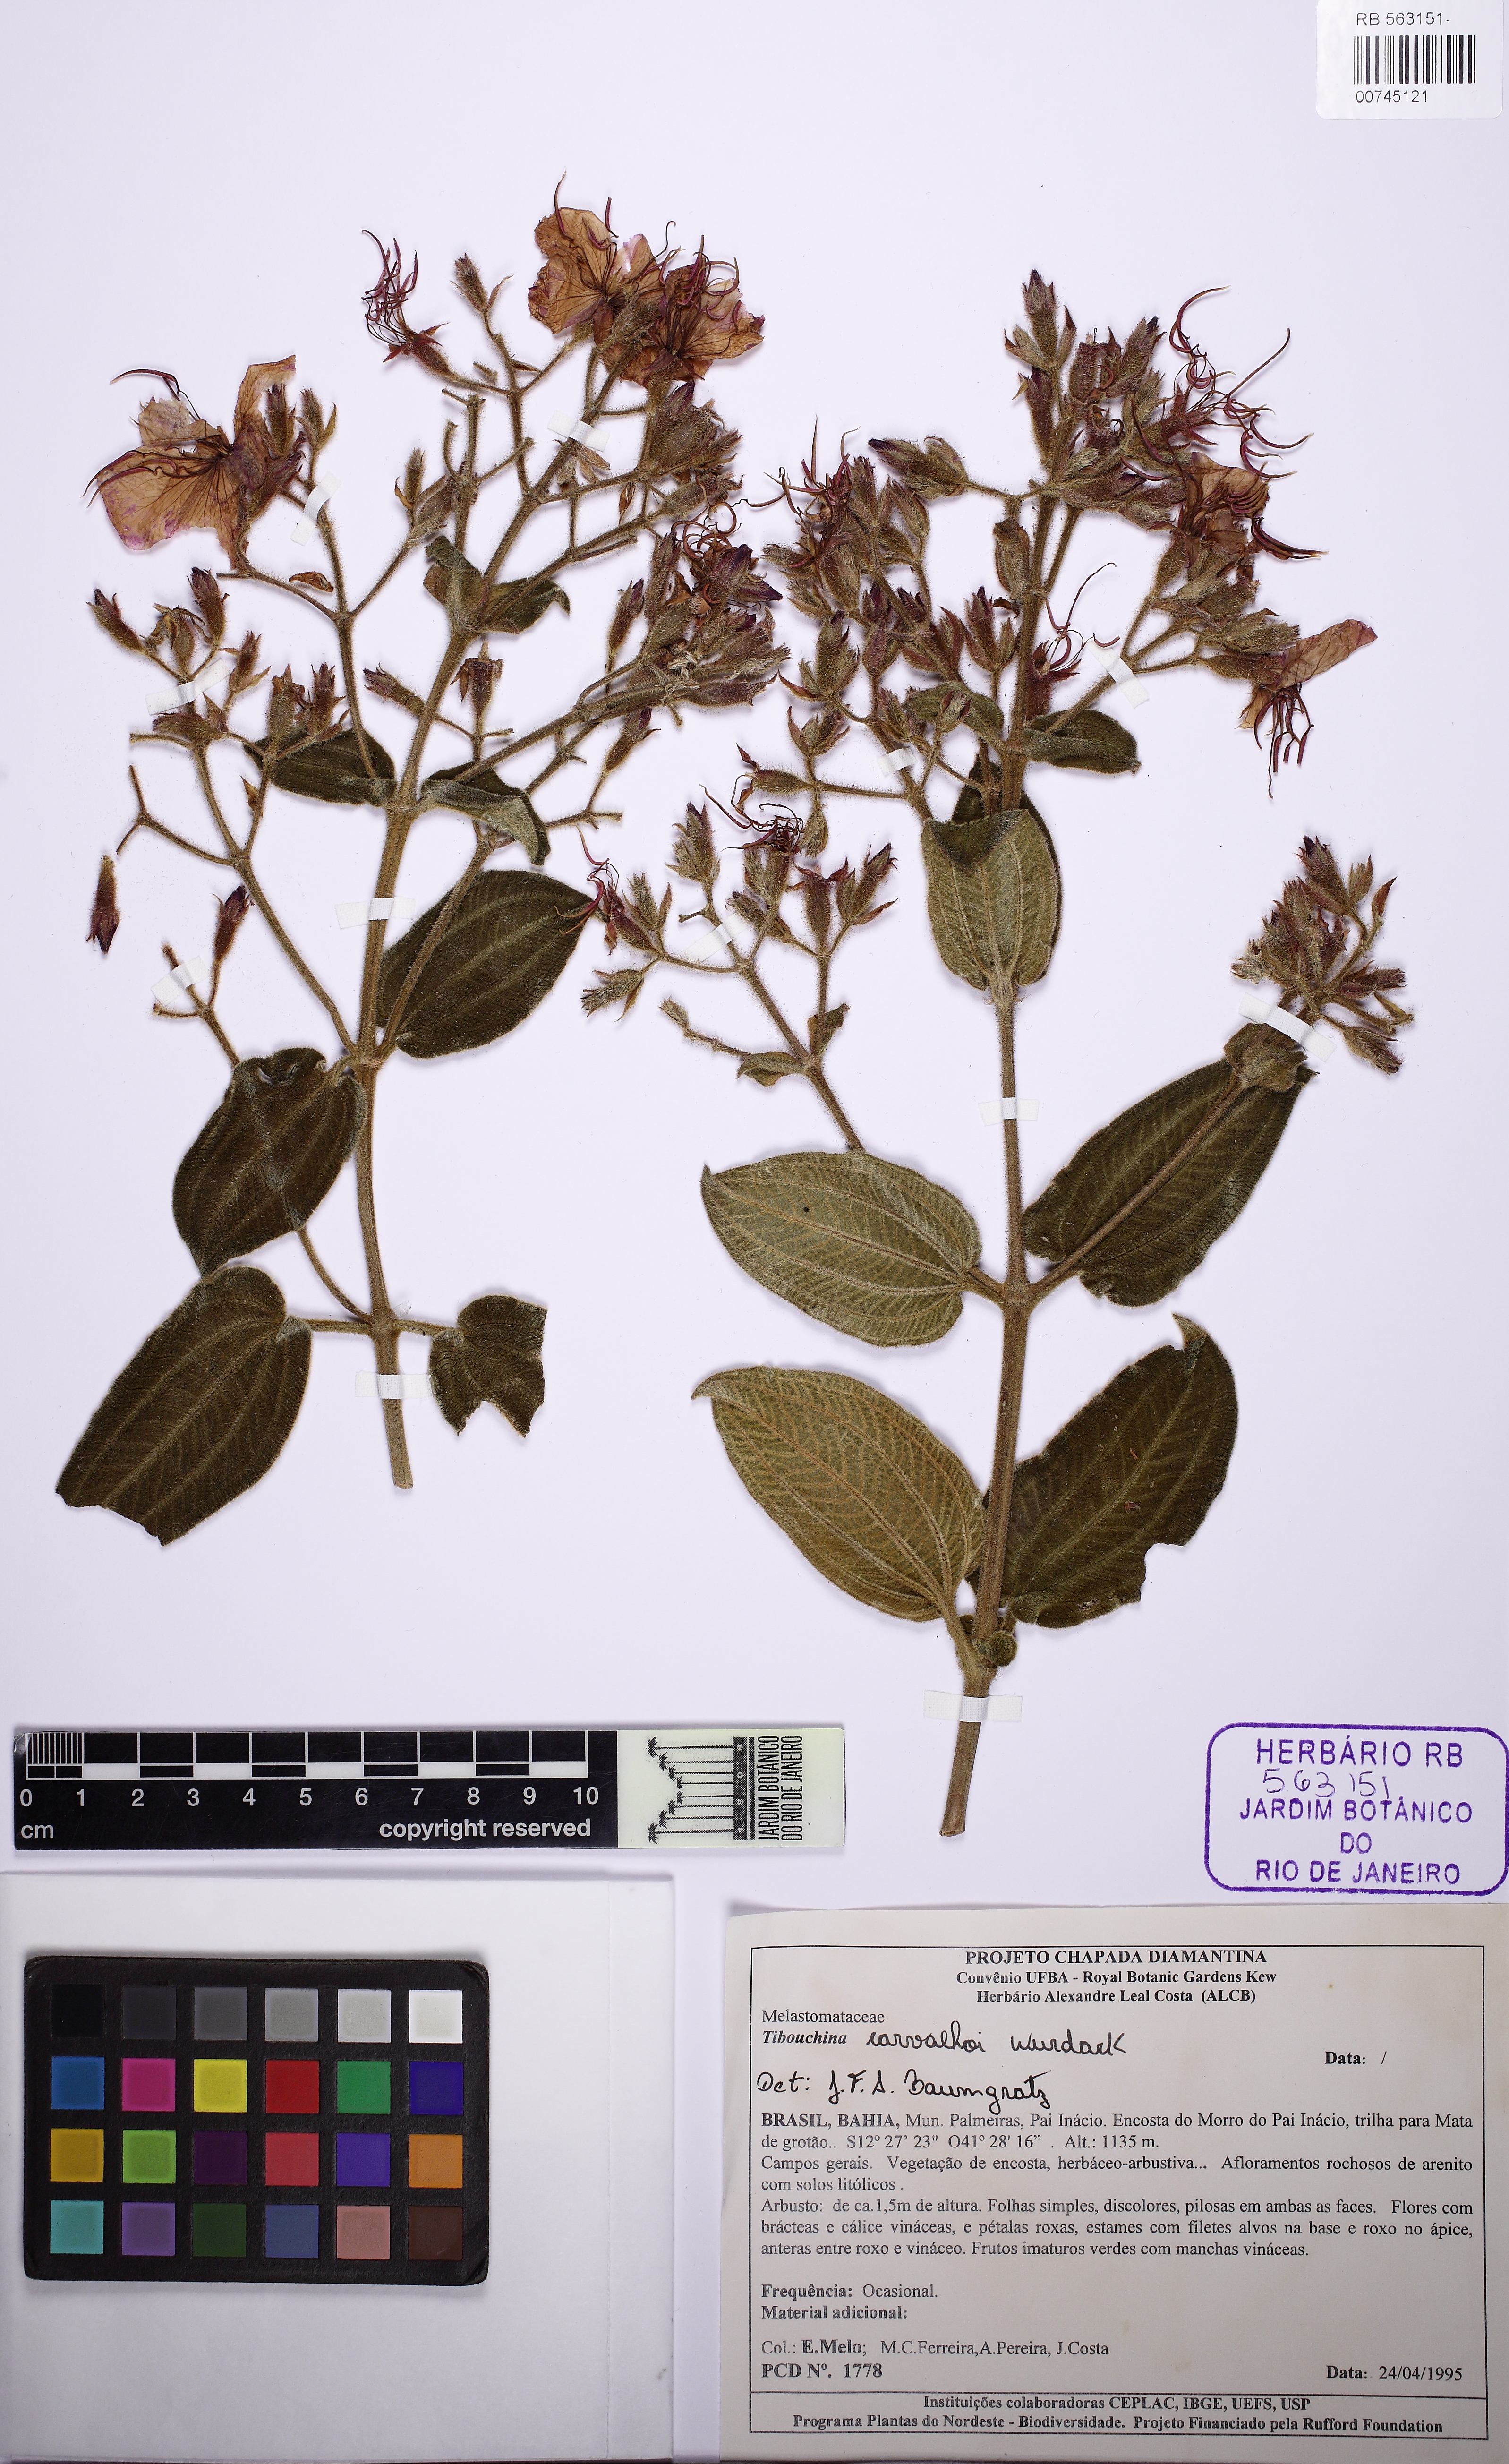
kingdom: Plantae
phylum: Tracheophyta
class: Magnoliopsida
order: Myrtales
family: Melastomataceae
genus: Pleroma
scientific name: Pleroma carvalhoi
